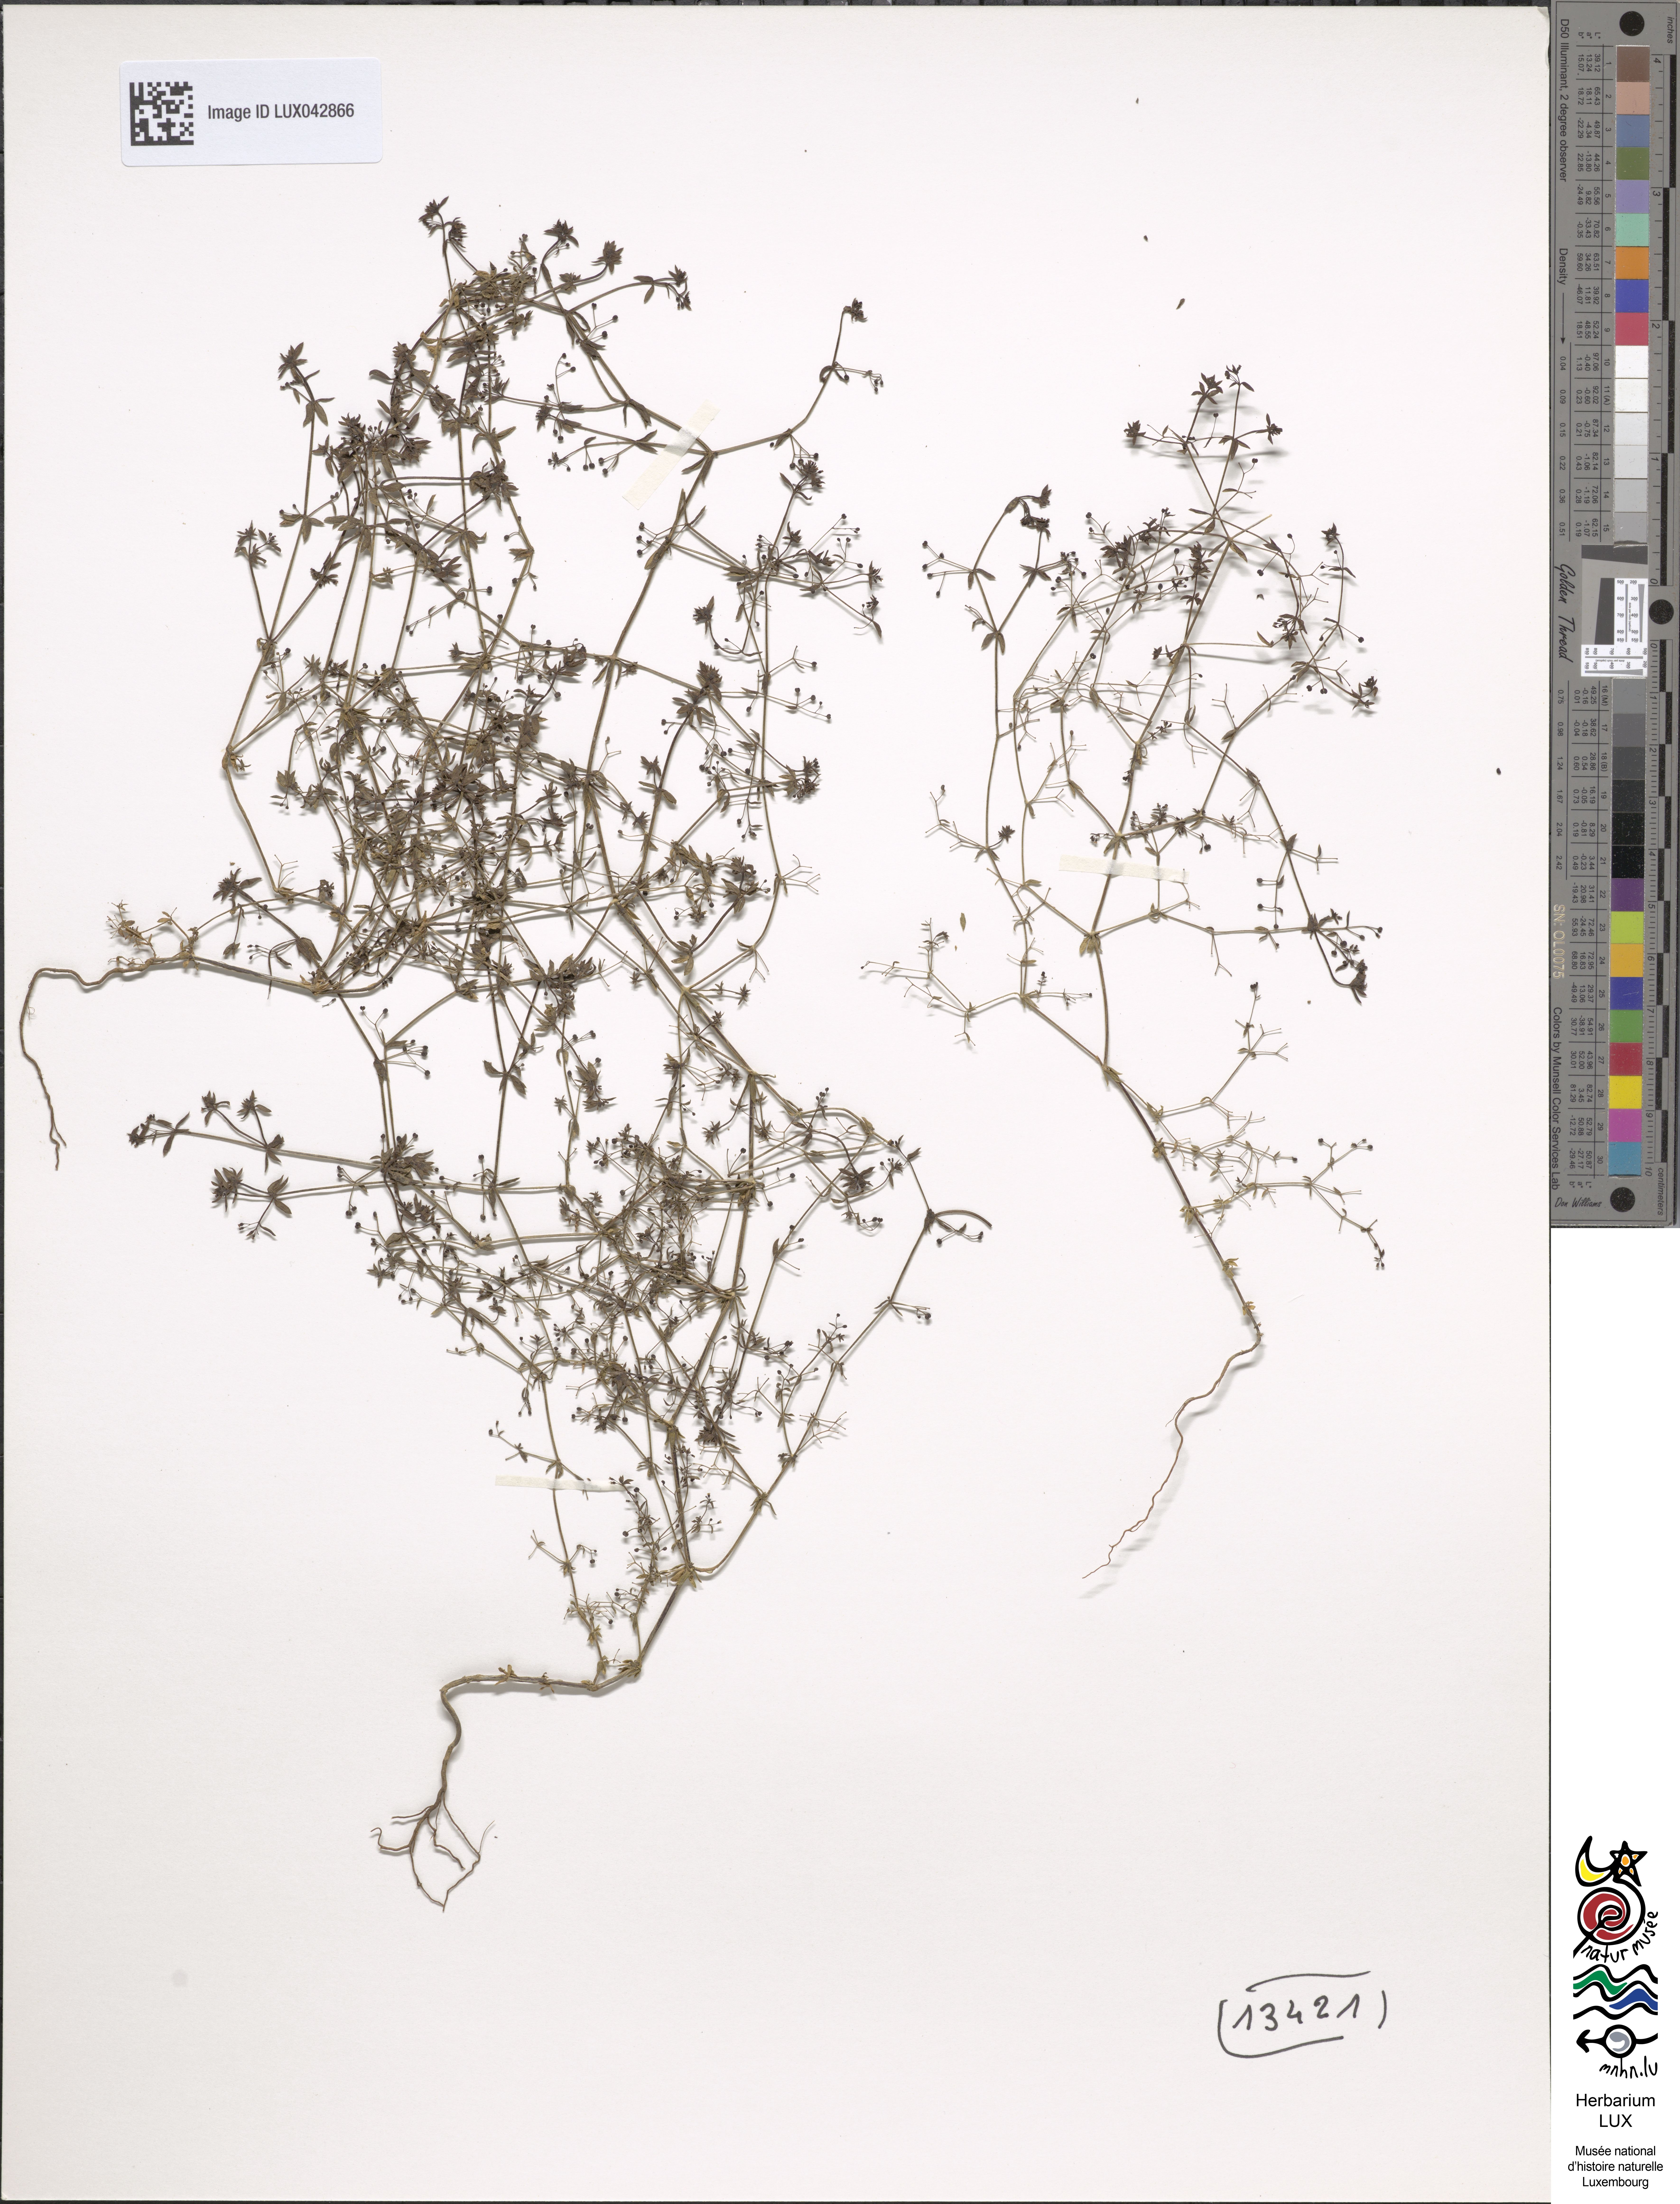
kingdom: Plantae
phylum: Tracheophyta
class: Magnoliopsida
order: Gentianales
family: Rubiaceae
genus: Galium
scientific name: Galium parisiense
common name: Wall bedstraw
